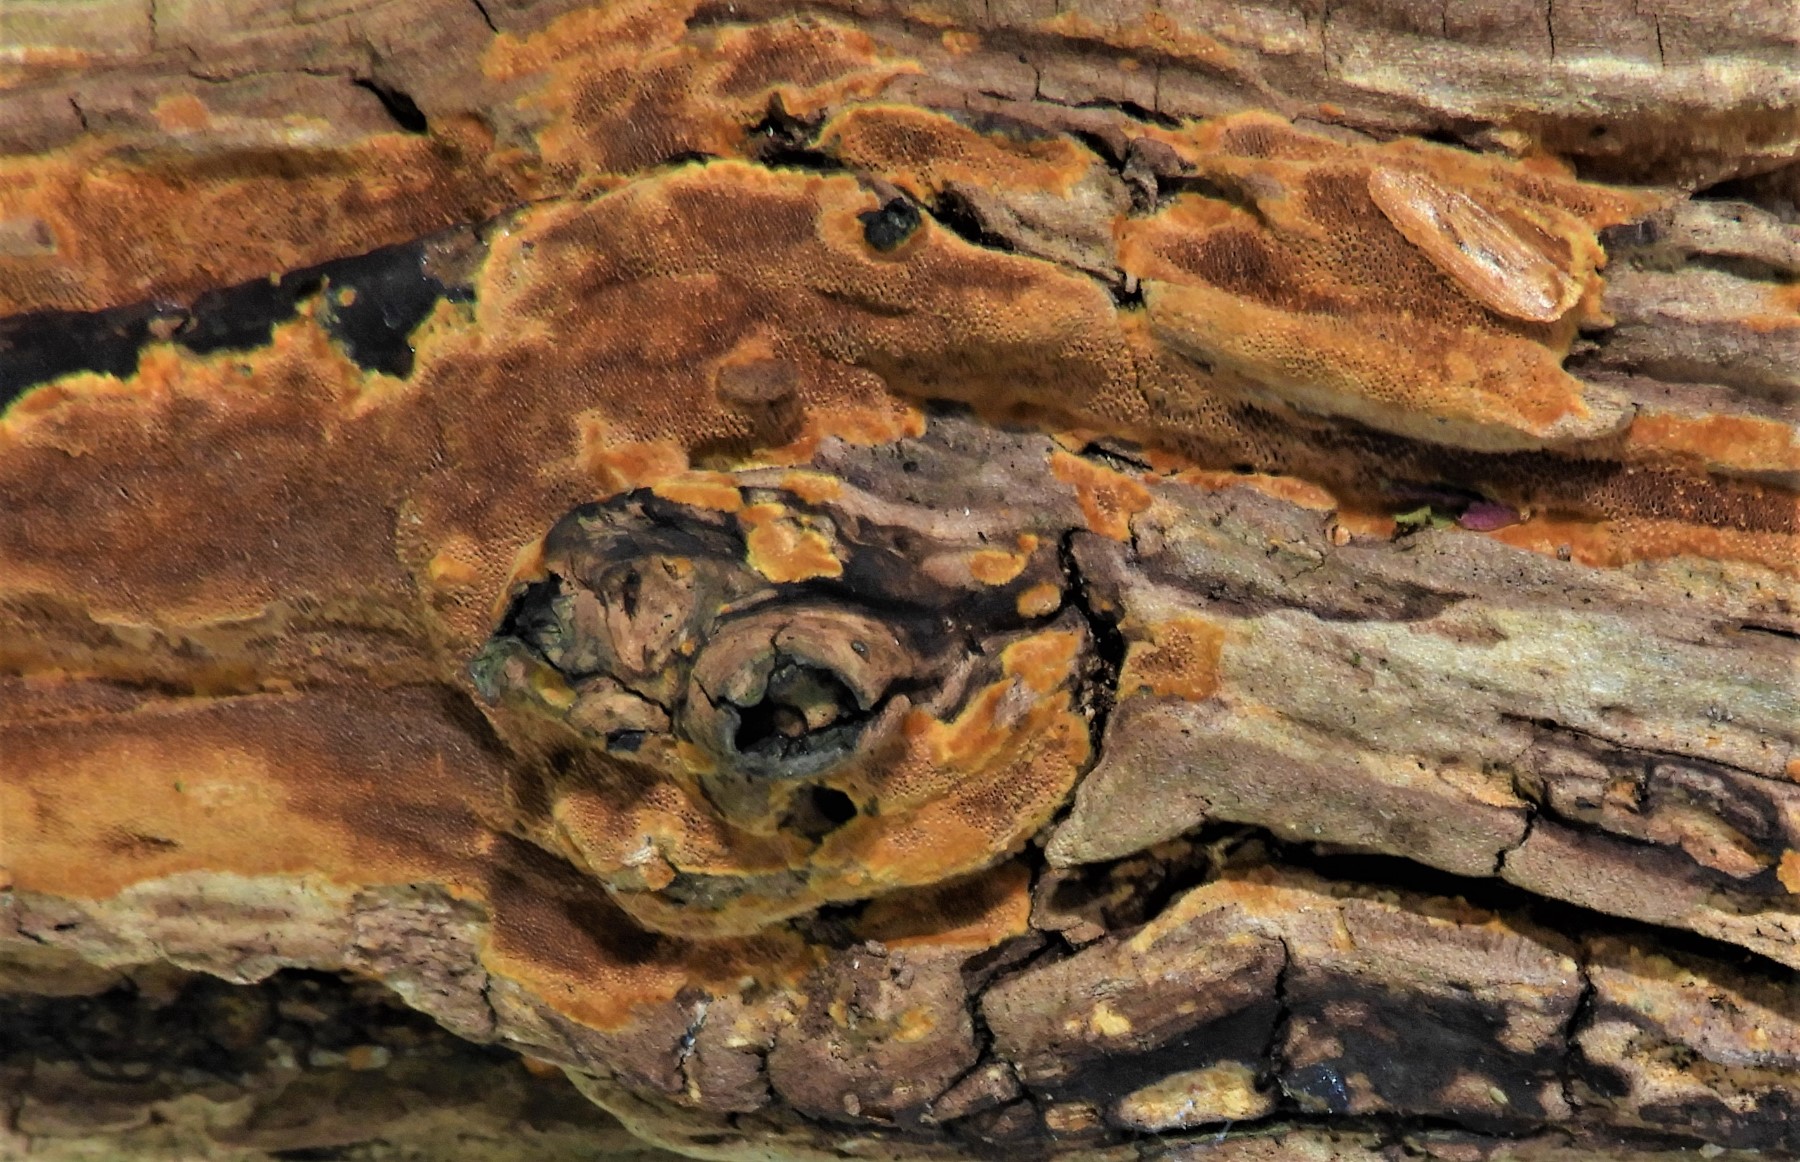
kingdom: Fungi
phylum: Basidiomycota
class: Agaricomycetes
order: Hymenochaetales
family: Hymenochaetaceae
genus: Fuscoporia
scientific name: Fuscoporia ferrea
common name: skorpe-ildporesvamp
